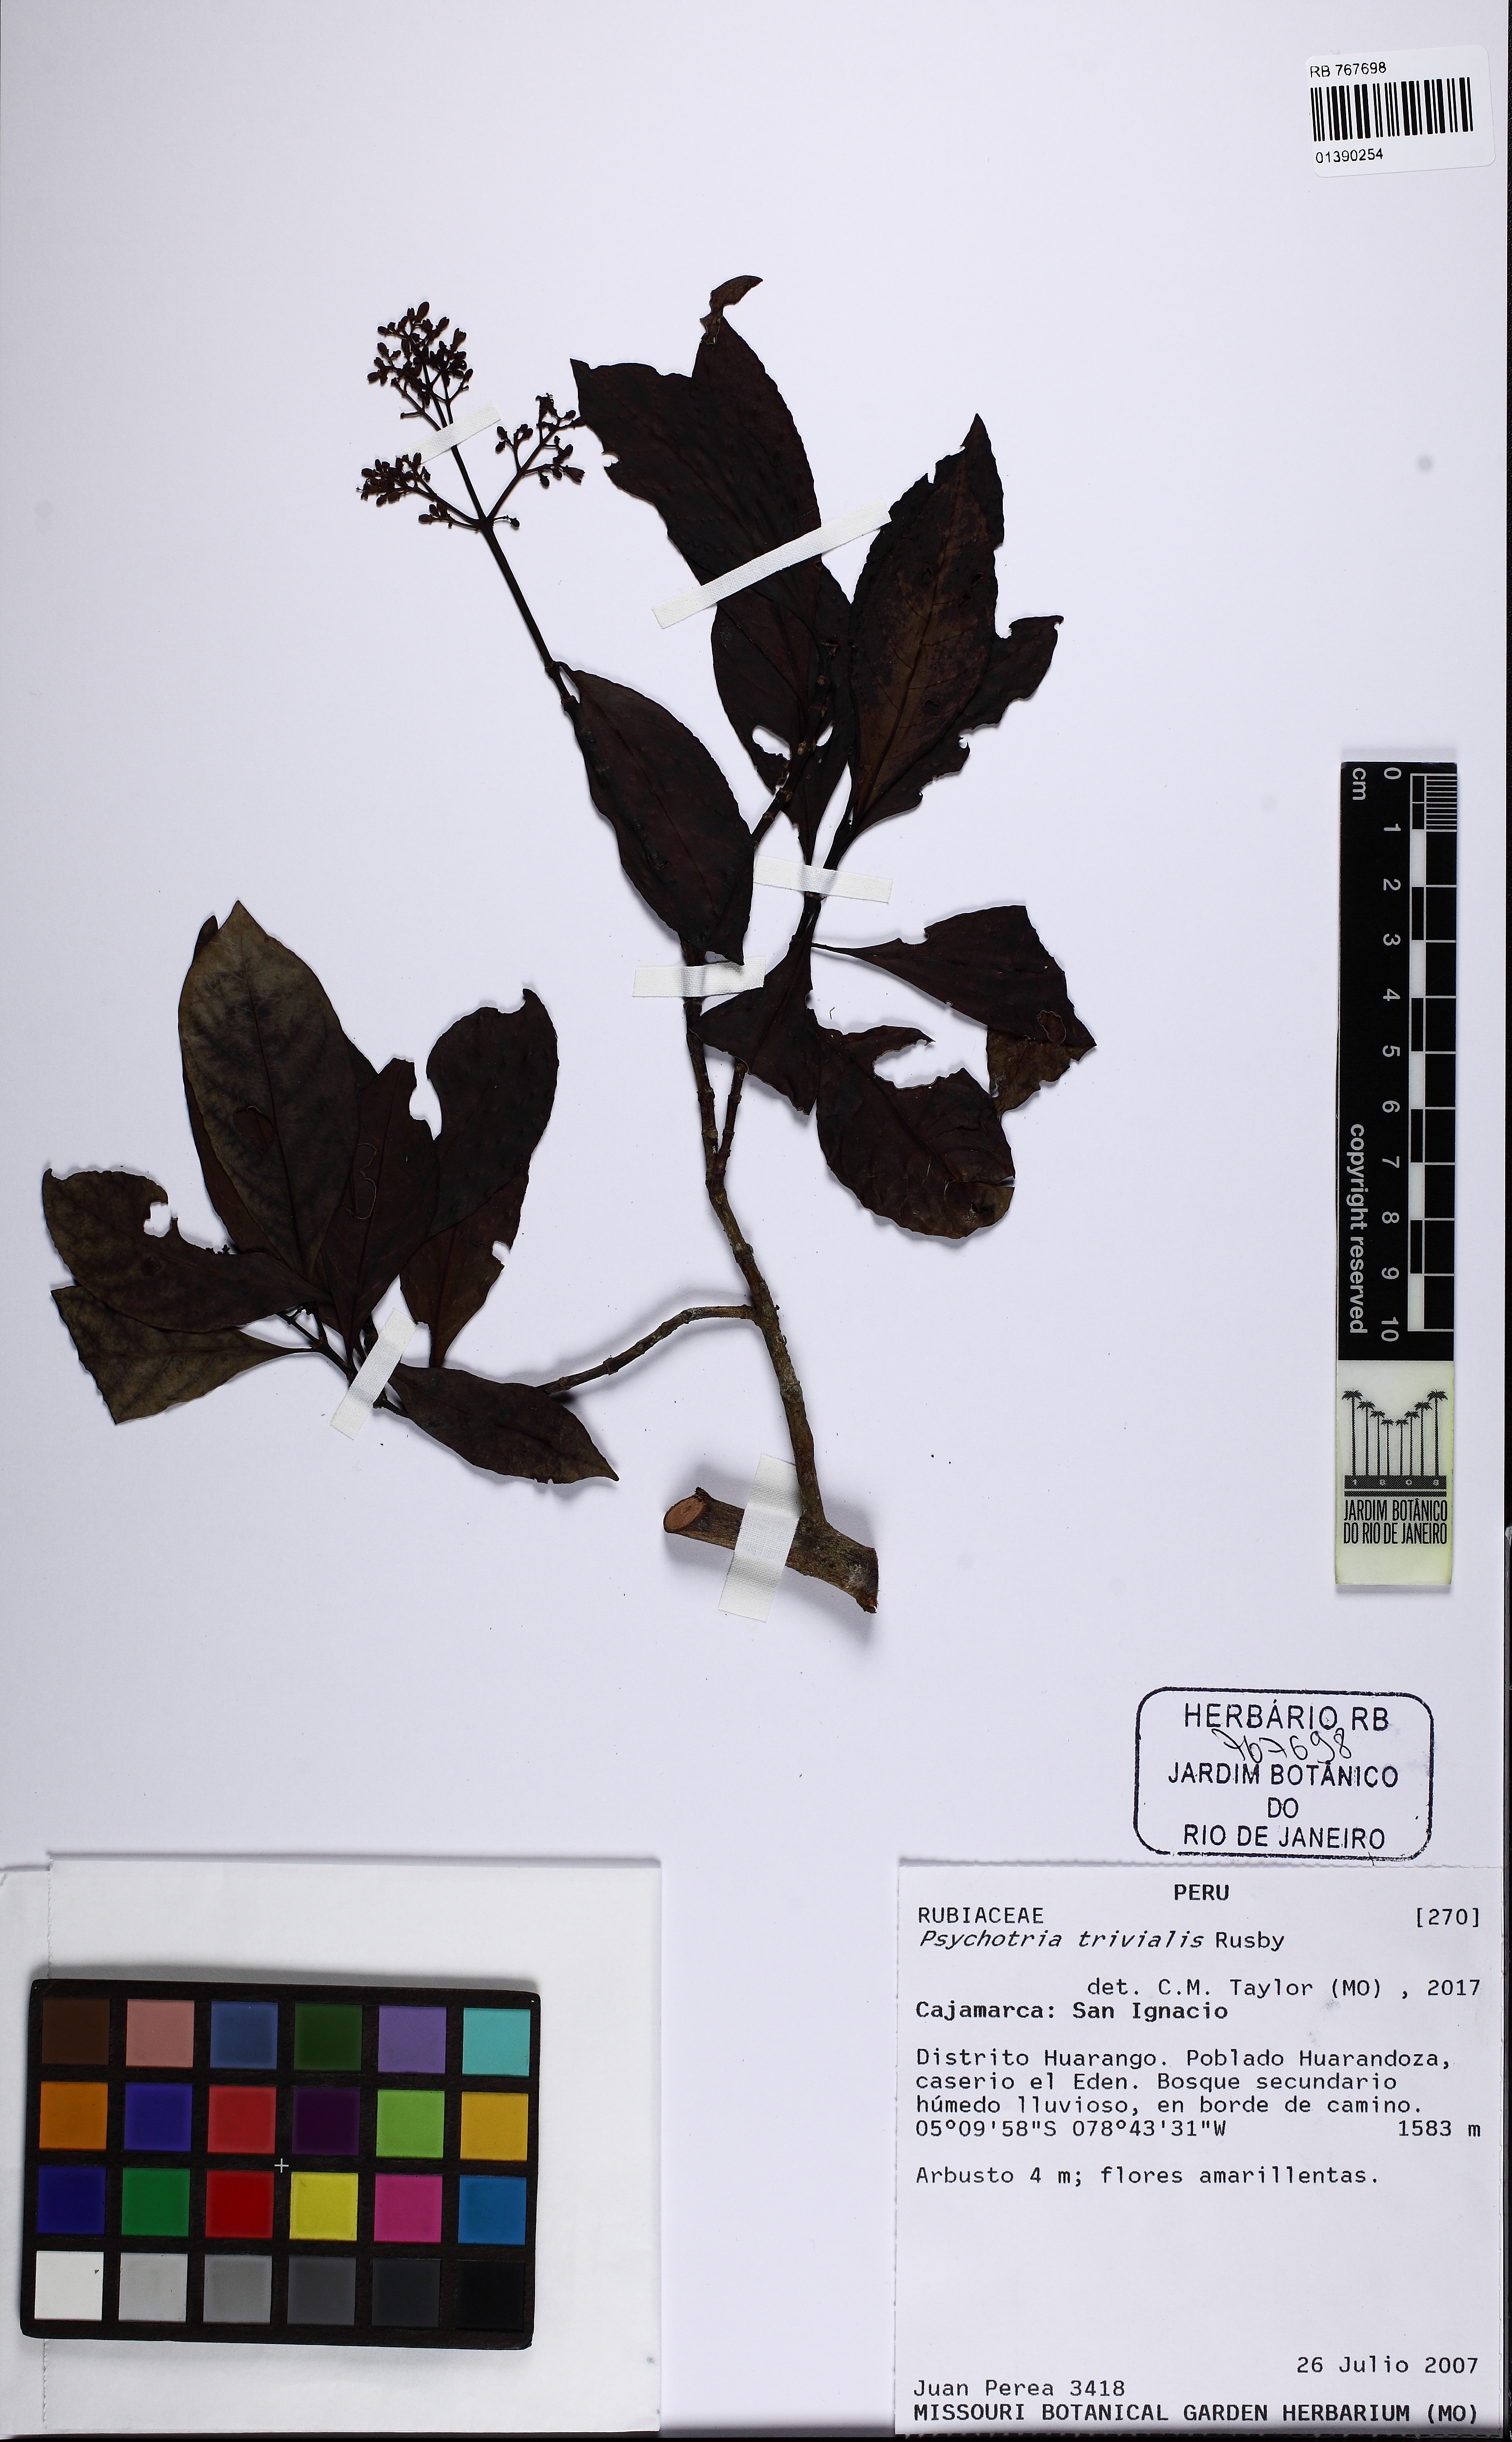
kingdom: Plantae
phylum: Tracheophyta
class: Magnoliopsida
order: Gentianales
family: Rubiaceae
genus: Psychotria
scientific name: Psychotria trivialis
